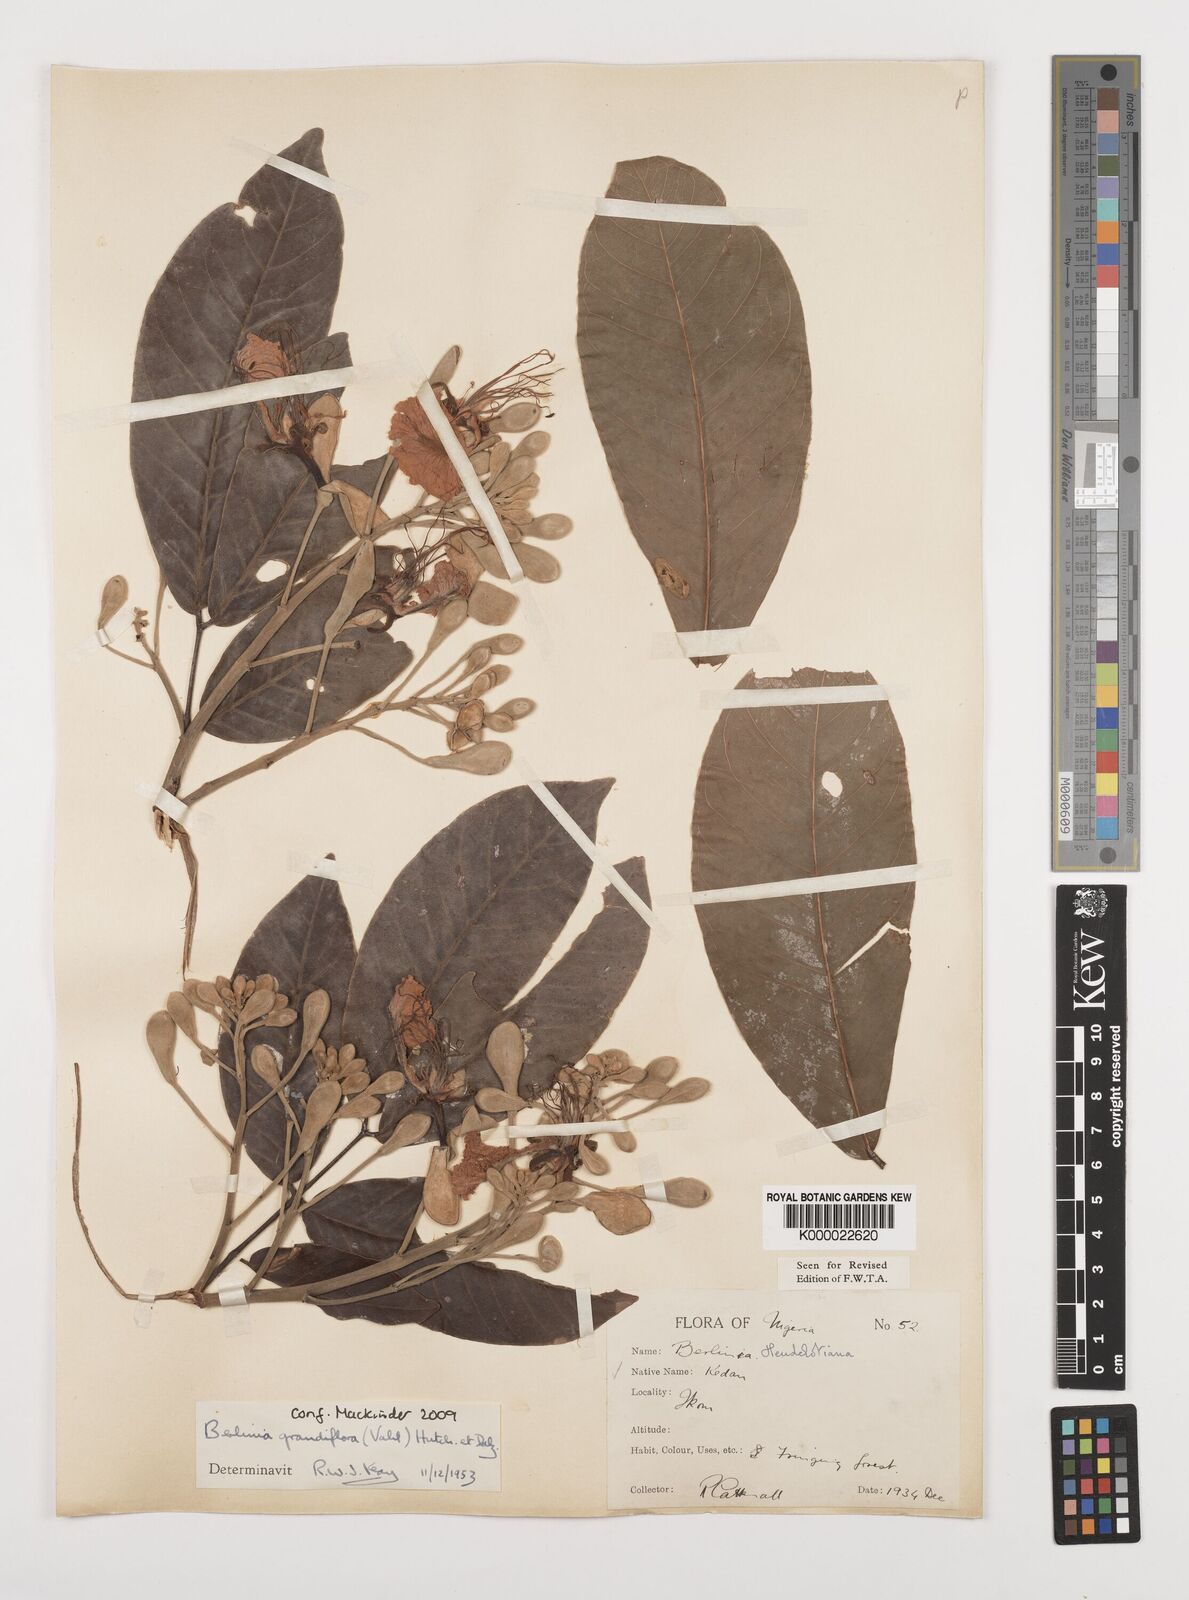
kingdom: Plantae
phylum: Tracheophyta
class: Magnoliopsida
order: Fabales
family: Fabaceae
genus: Berlinia
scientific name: Berlinia grandiflora
